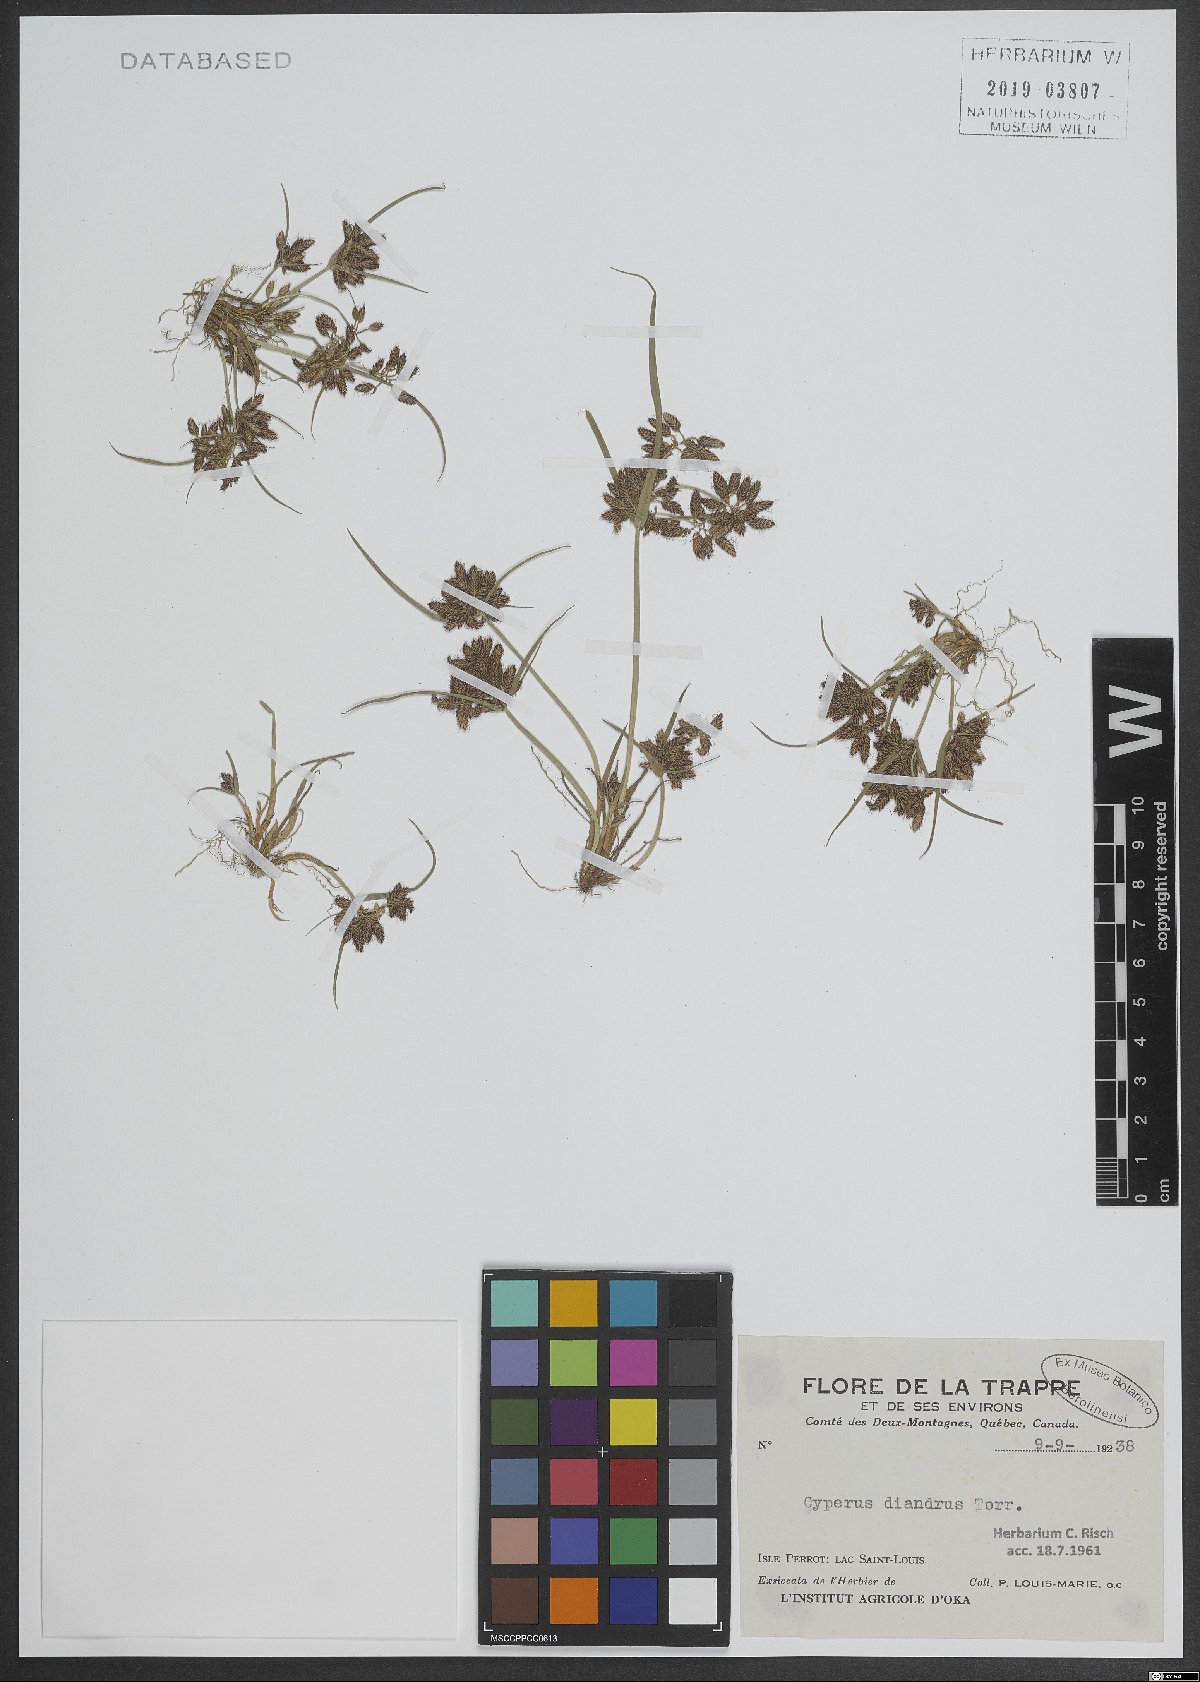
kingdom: Plantae
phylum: Tracheophyta
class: Liliopsida
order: Poales
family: Cyperaceae
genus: Cyperus
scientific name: Cyperus diandrus
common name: Low cyperus
